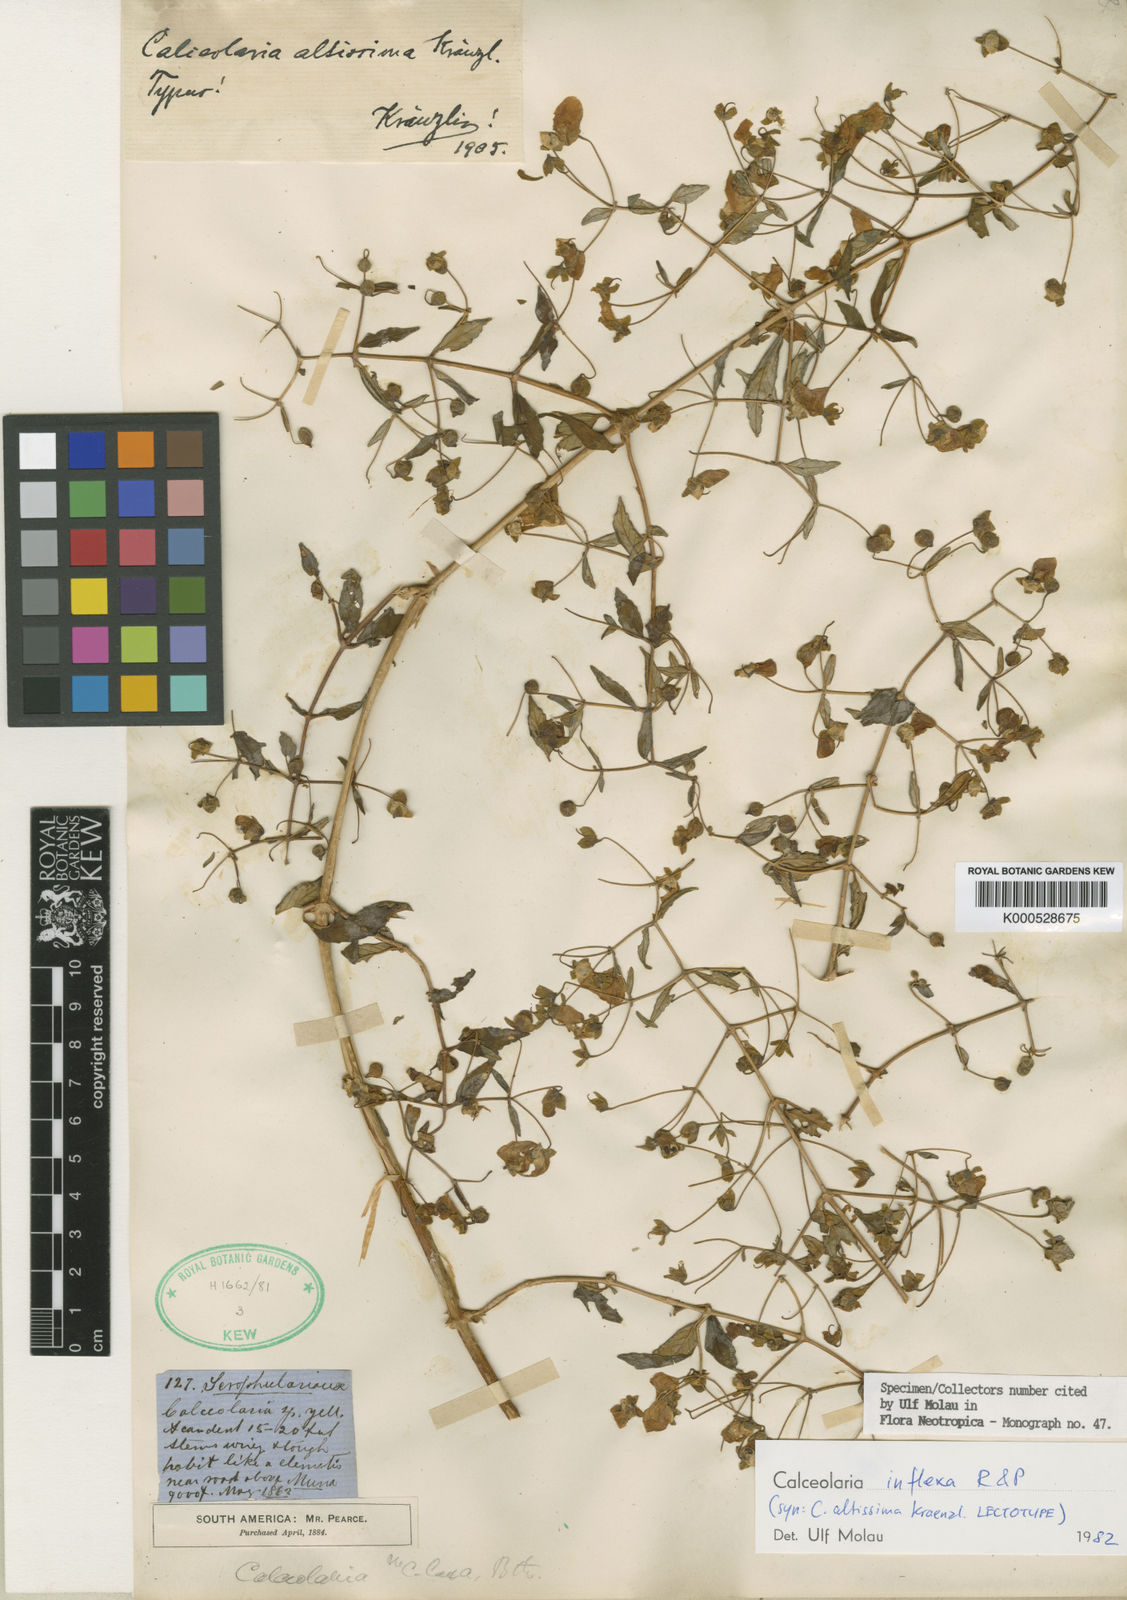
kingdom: Plantae
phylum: Tracheophyta
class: Magnoliopsida
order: Lamiales
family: Calceolariaceae
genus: Calceolaria
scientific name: Calceolaria inflexa
